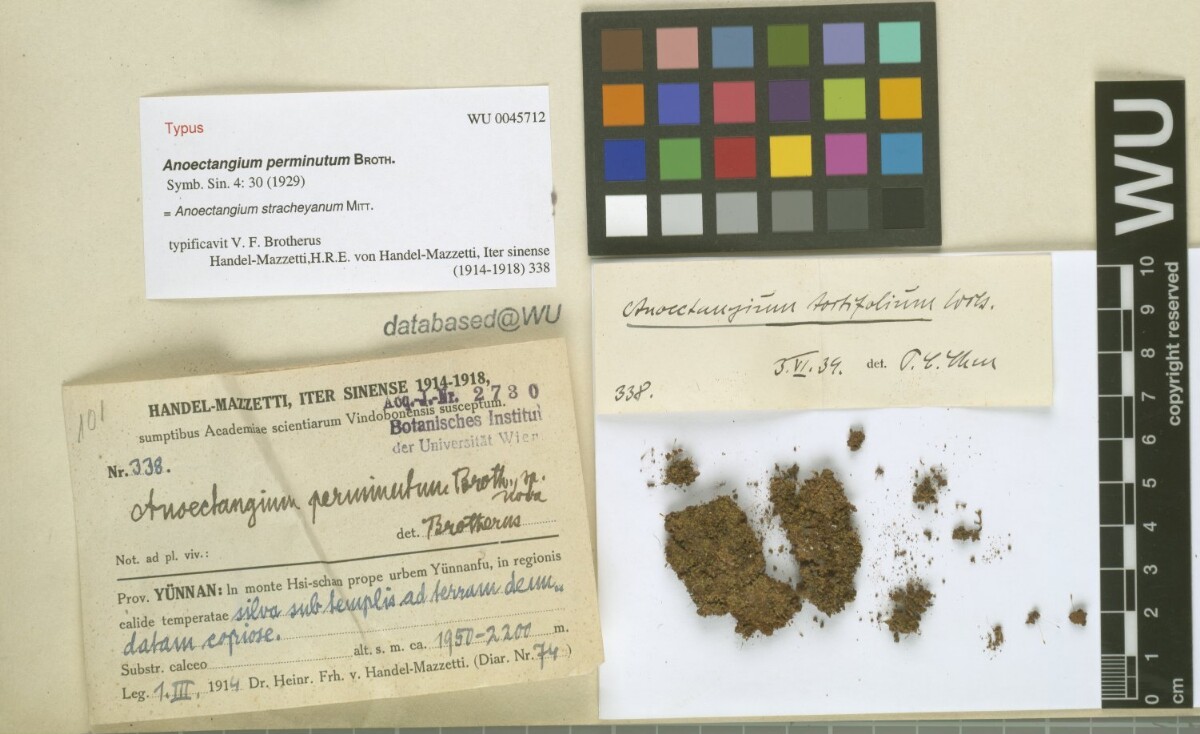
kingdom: Plantae
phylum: Bryophyta
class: Bryopsida
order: Pottiales
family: Pottiaceae
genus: Anoectangium
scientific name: Anoectangium stracheyanum
